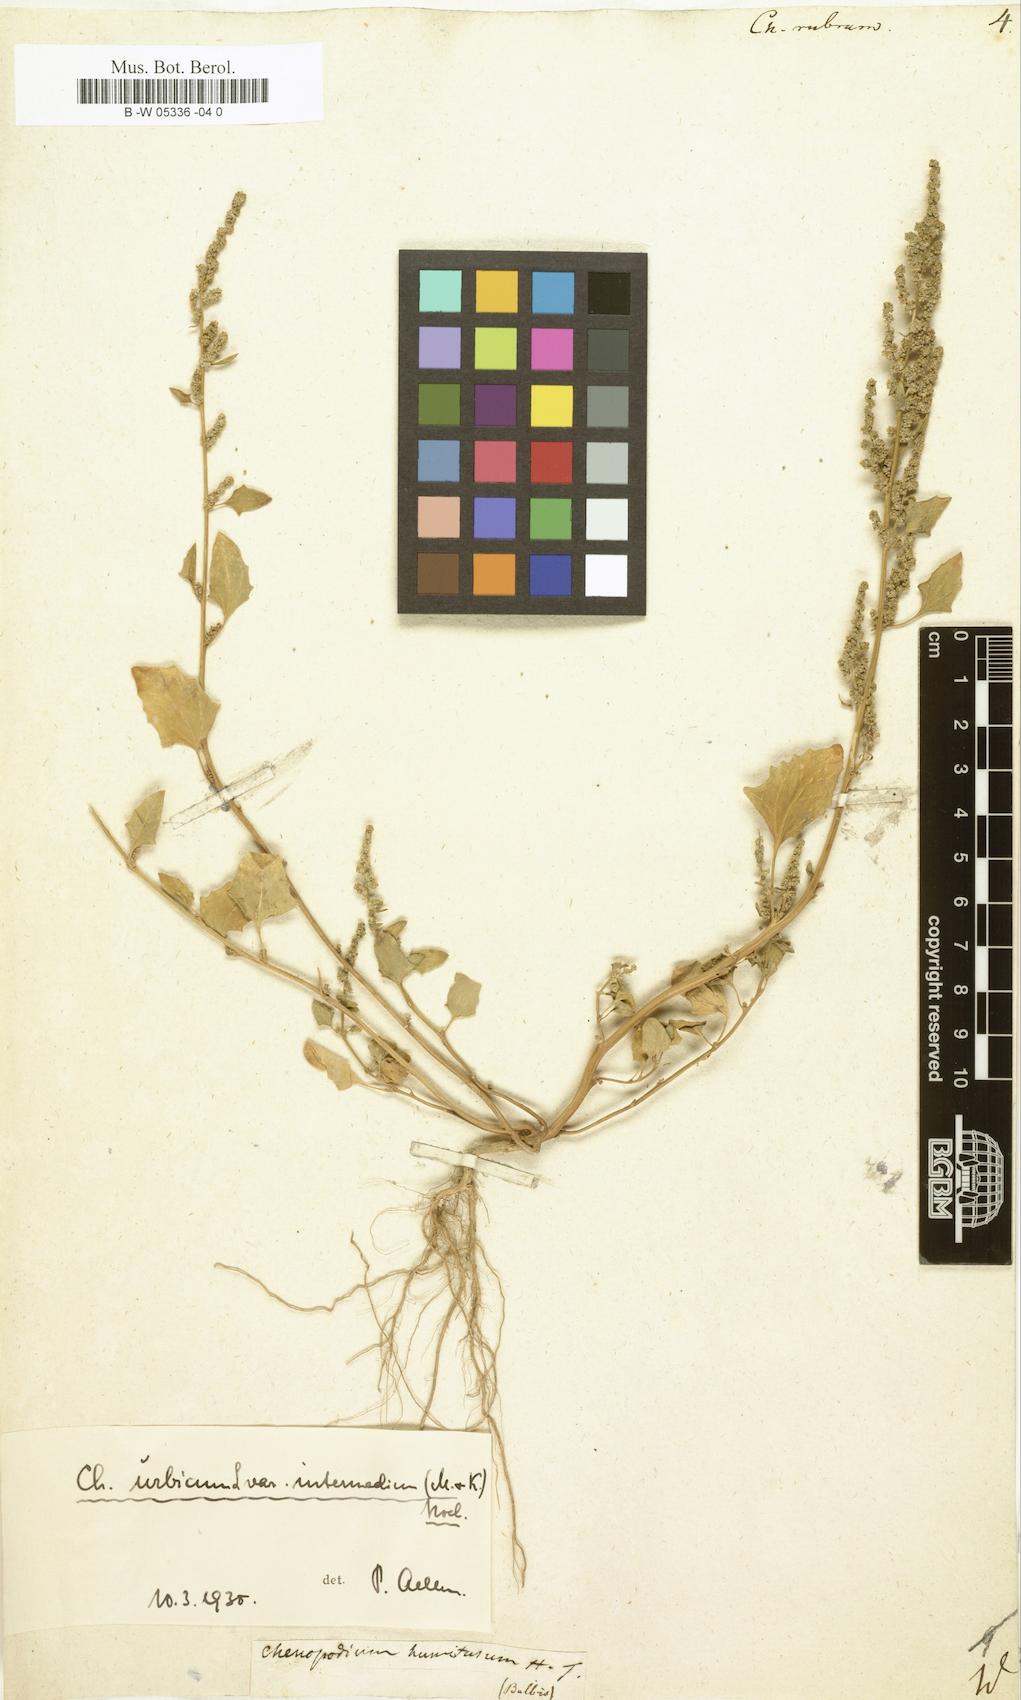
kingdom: Plantae
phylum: Tracheophyta
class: Magnoliopsida
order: Caryophyllales
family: Amaranthaceae
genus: Oxybasis
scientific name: Oxybasis rubra
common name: Red goosefoot
